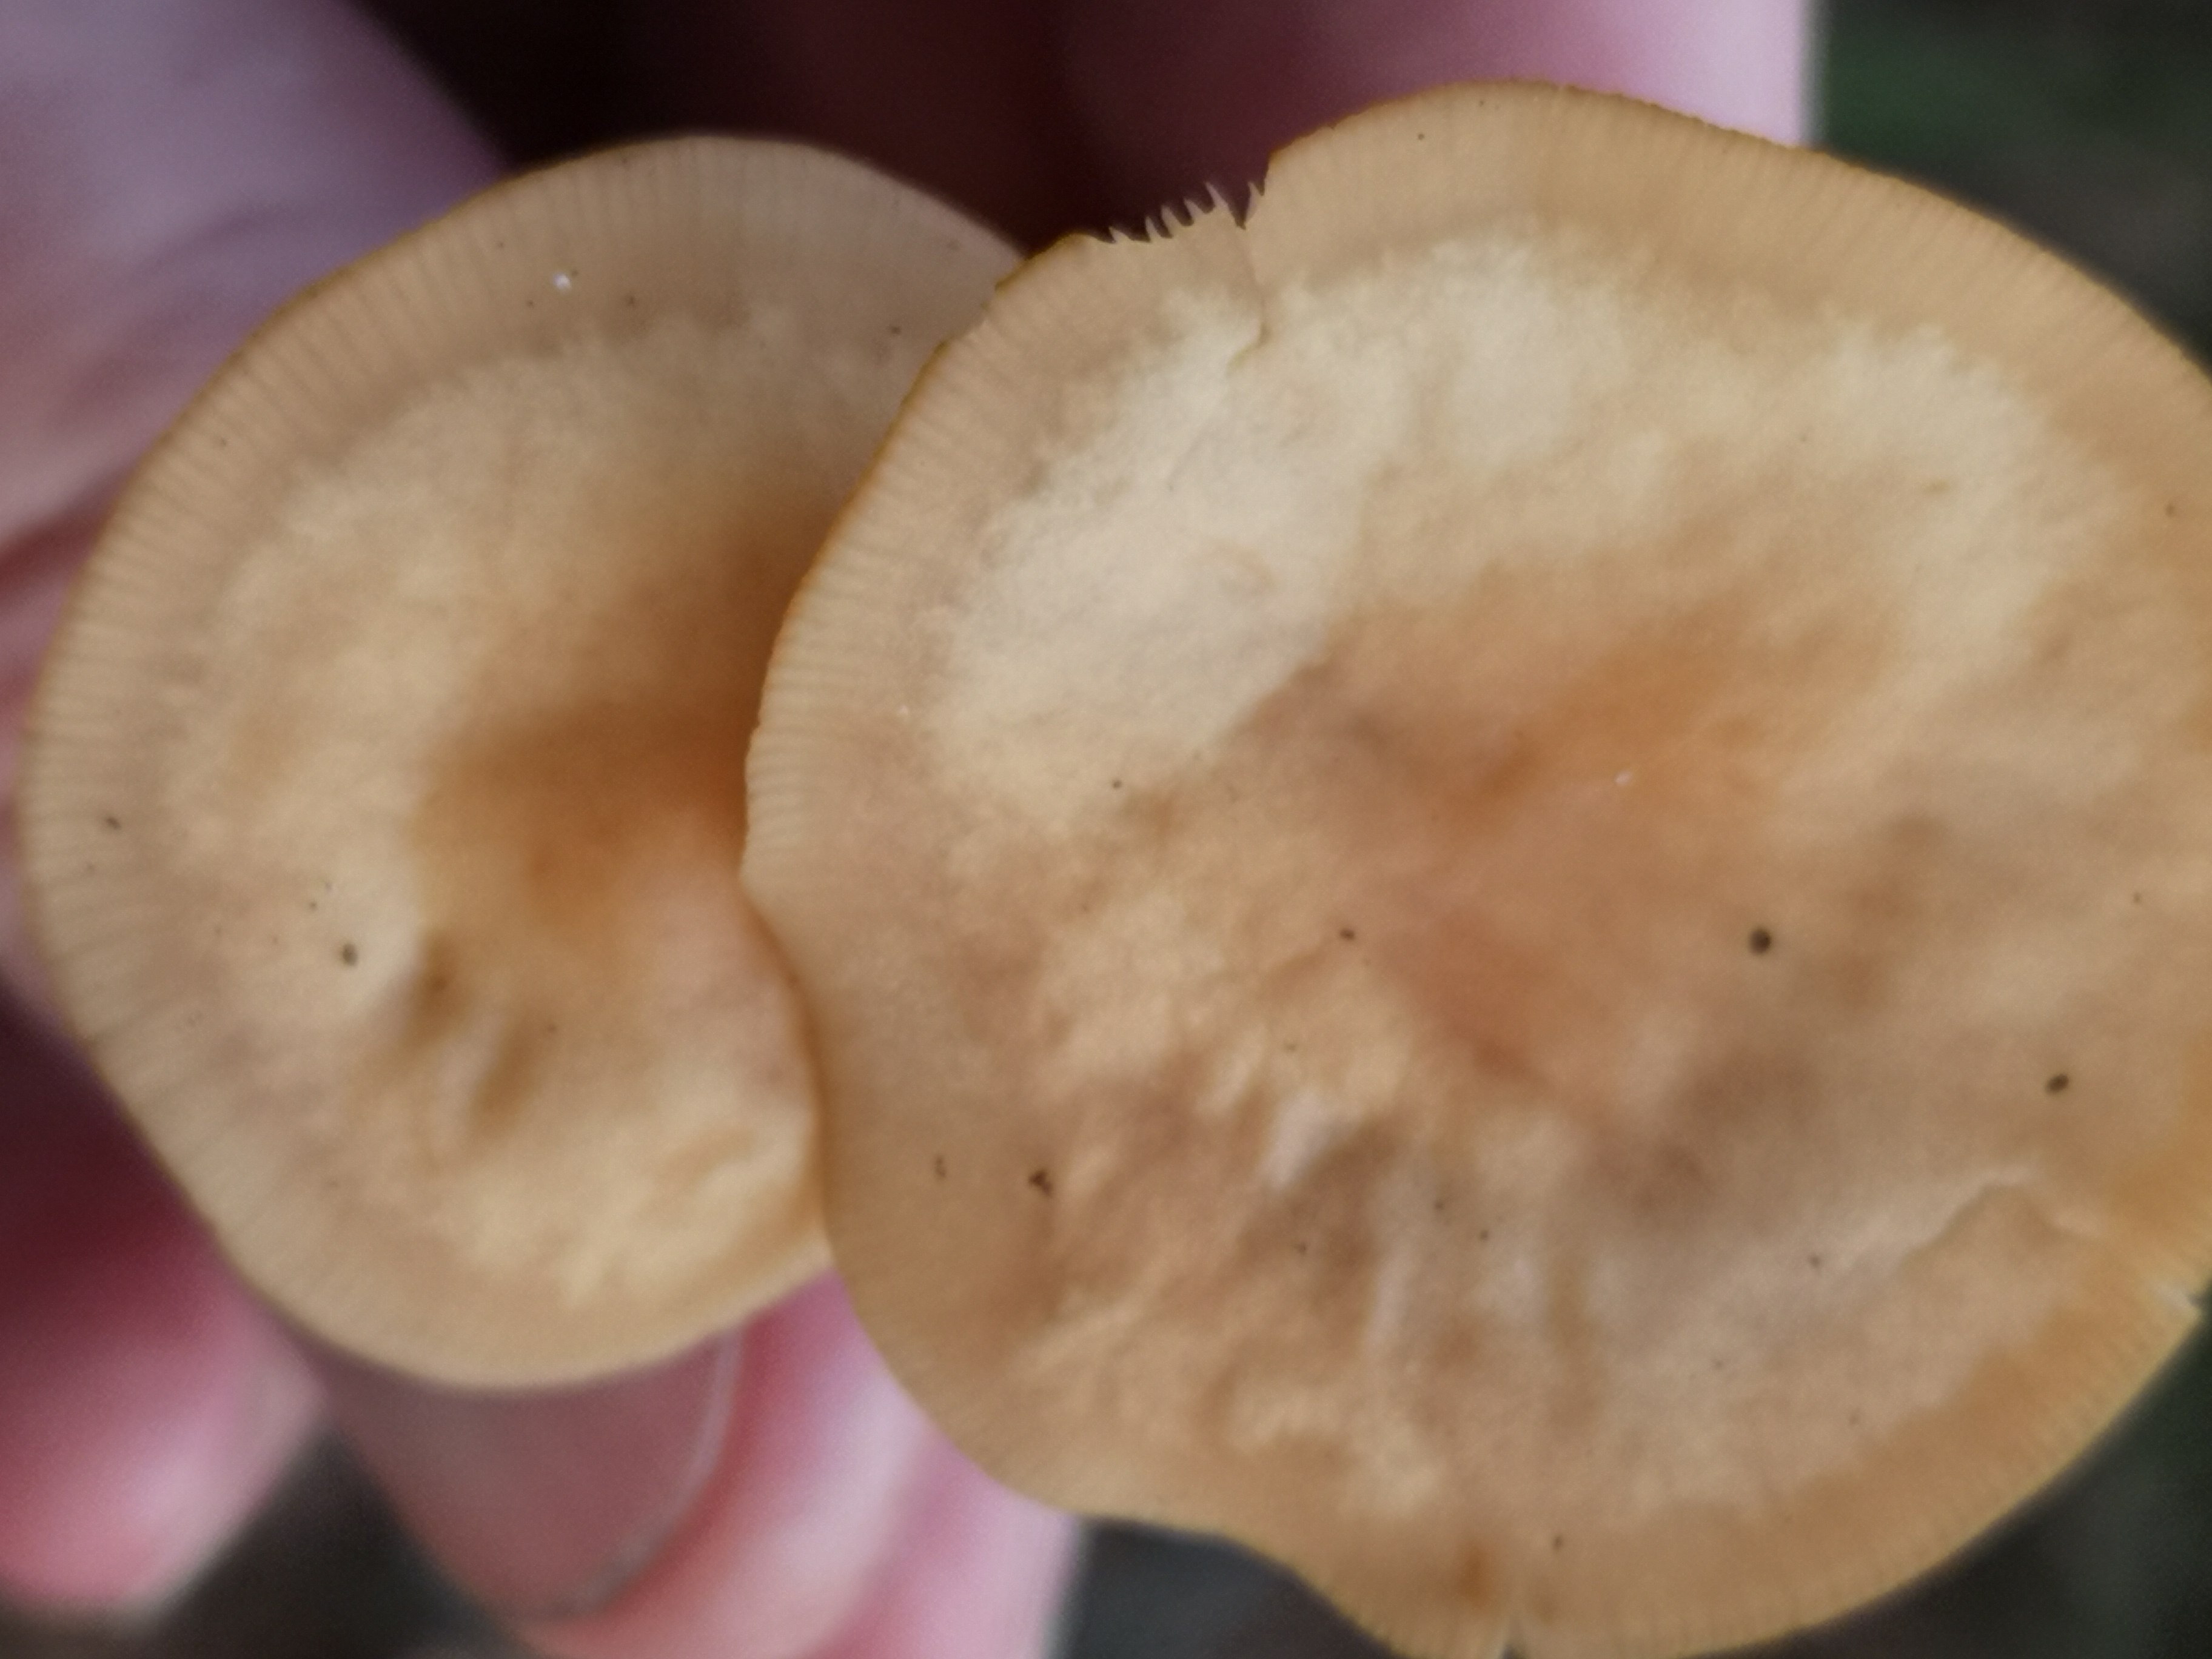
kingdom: Fungi
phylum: Basidiomycota
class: Agaricomycetes
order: Agaricales
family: Omphalotaceae
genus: Gymnopus
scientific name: Gymnopus dryophilus
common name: løv-fladhat
